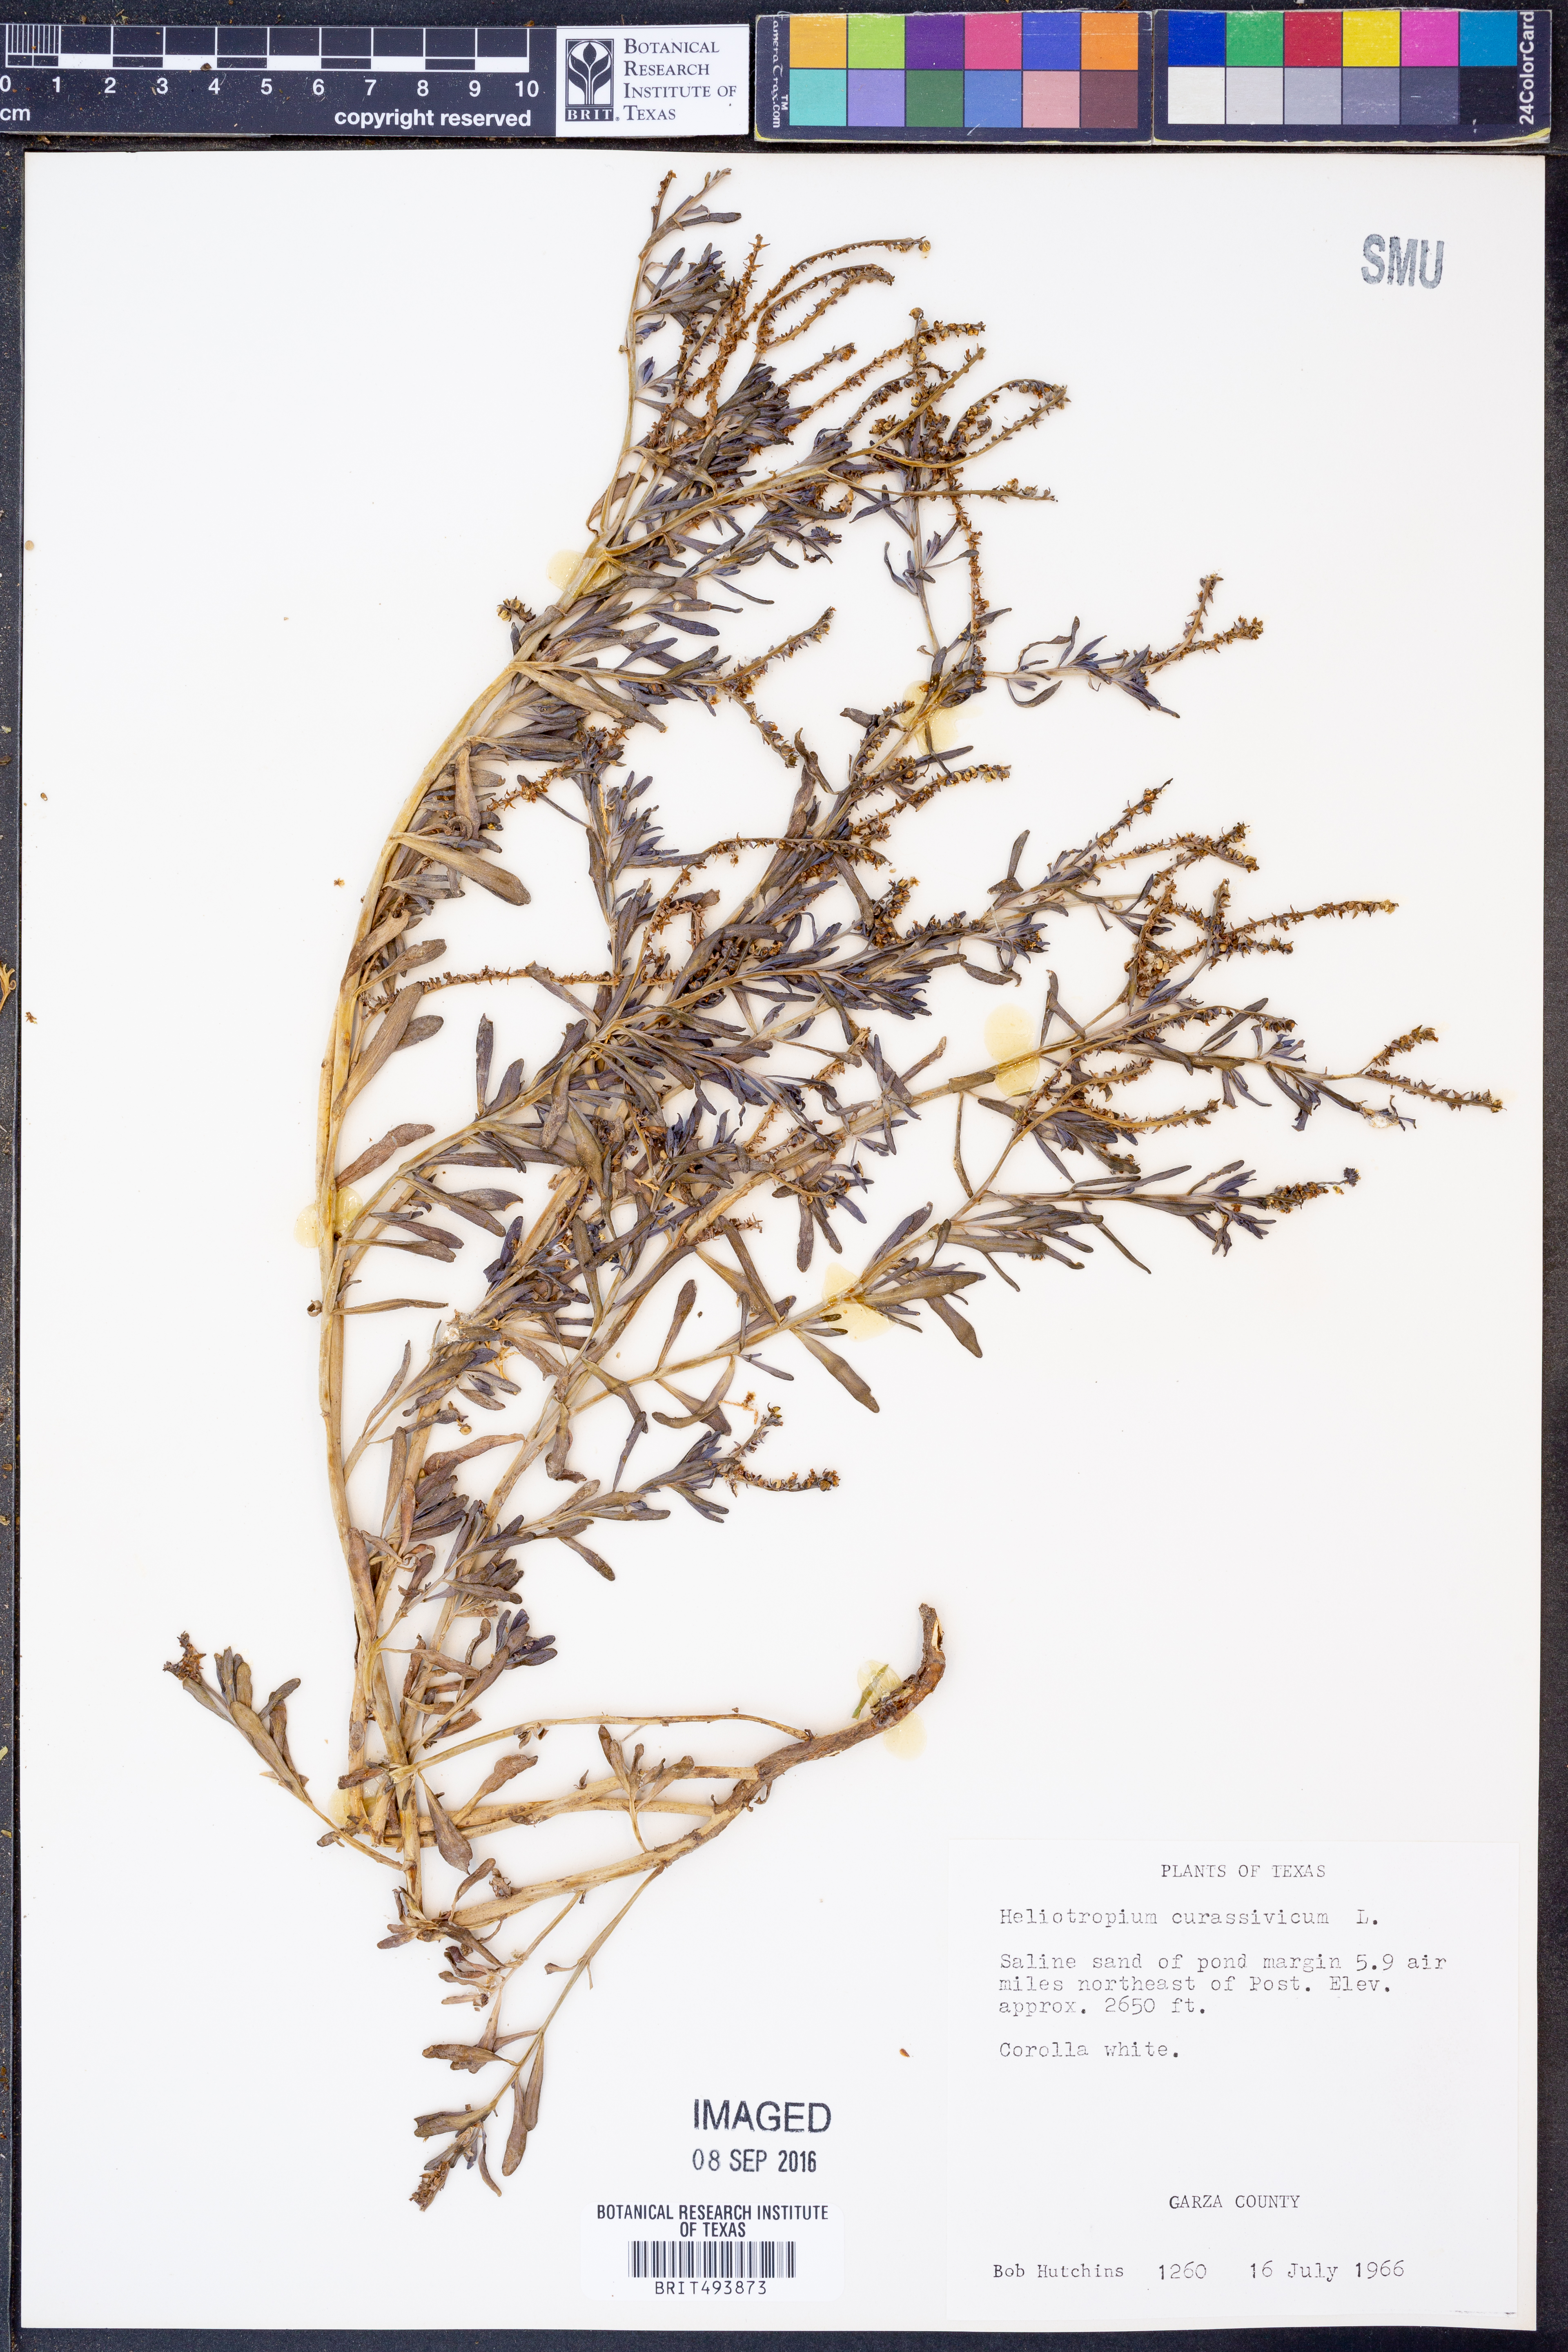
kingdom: Plantae
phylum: Tracheophyta
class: Magnoliopsida
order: Boraginales
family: Heliotropiaceae
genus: Heliotropium
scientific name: Heliotropium curassavicum
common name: Seaside heliotrope
